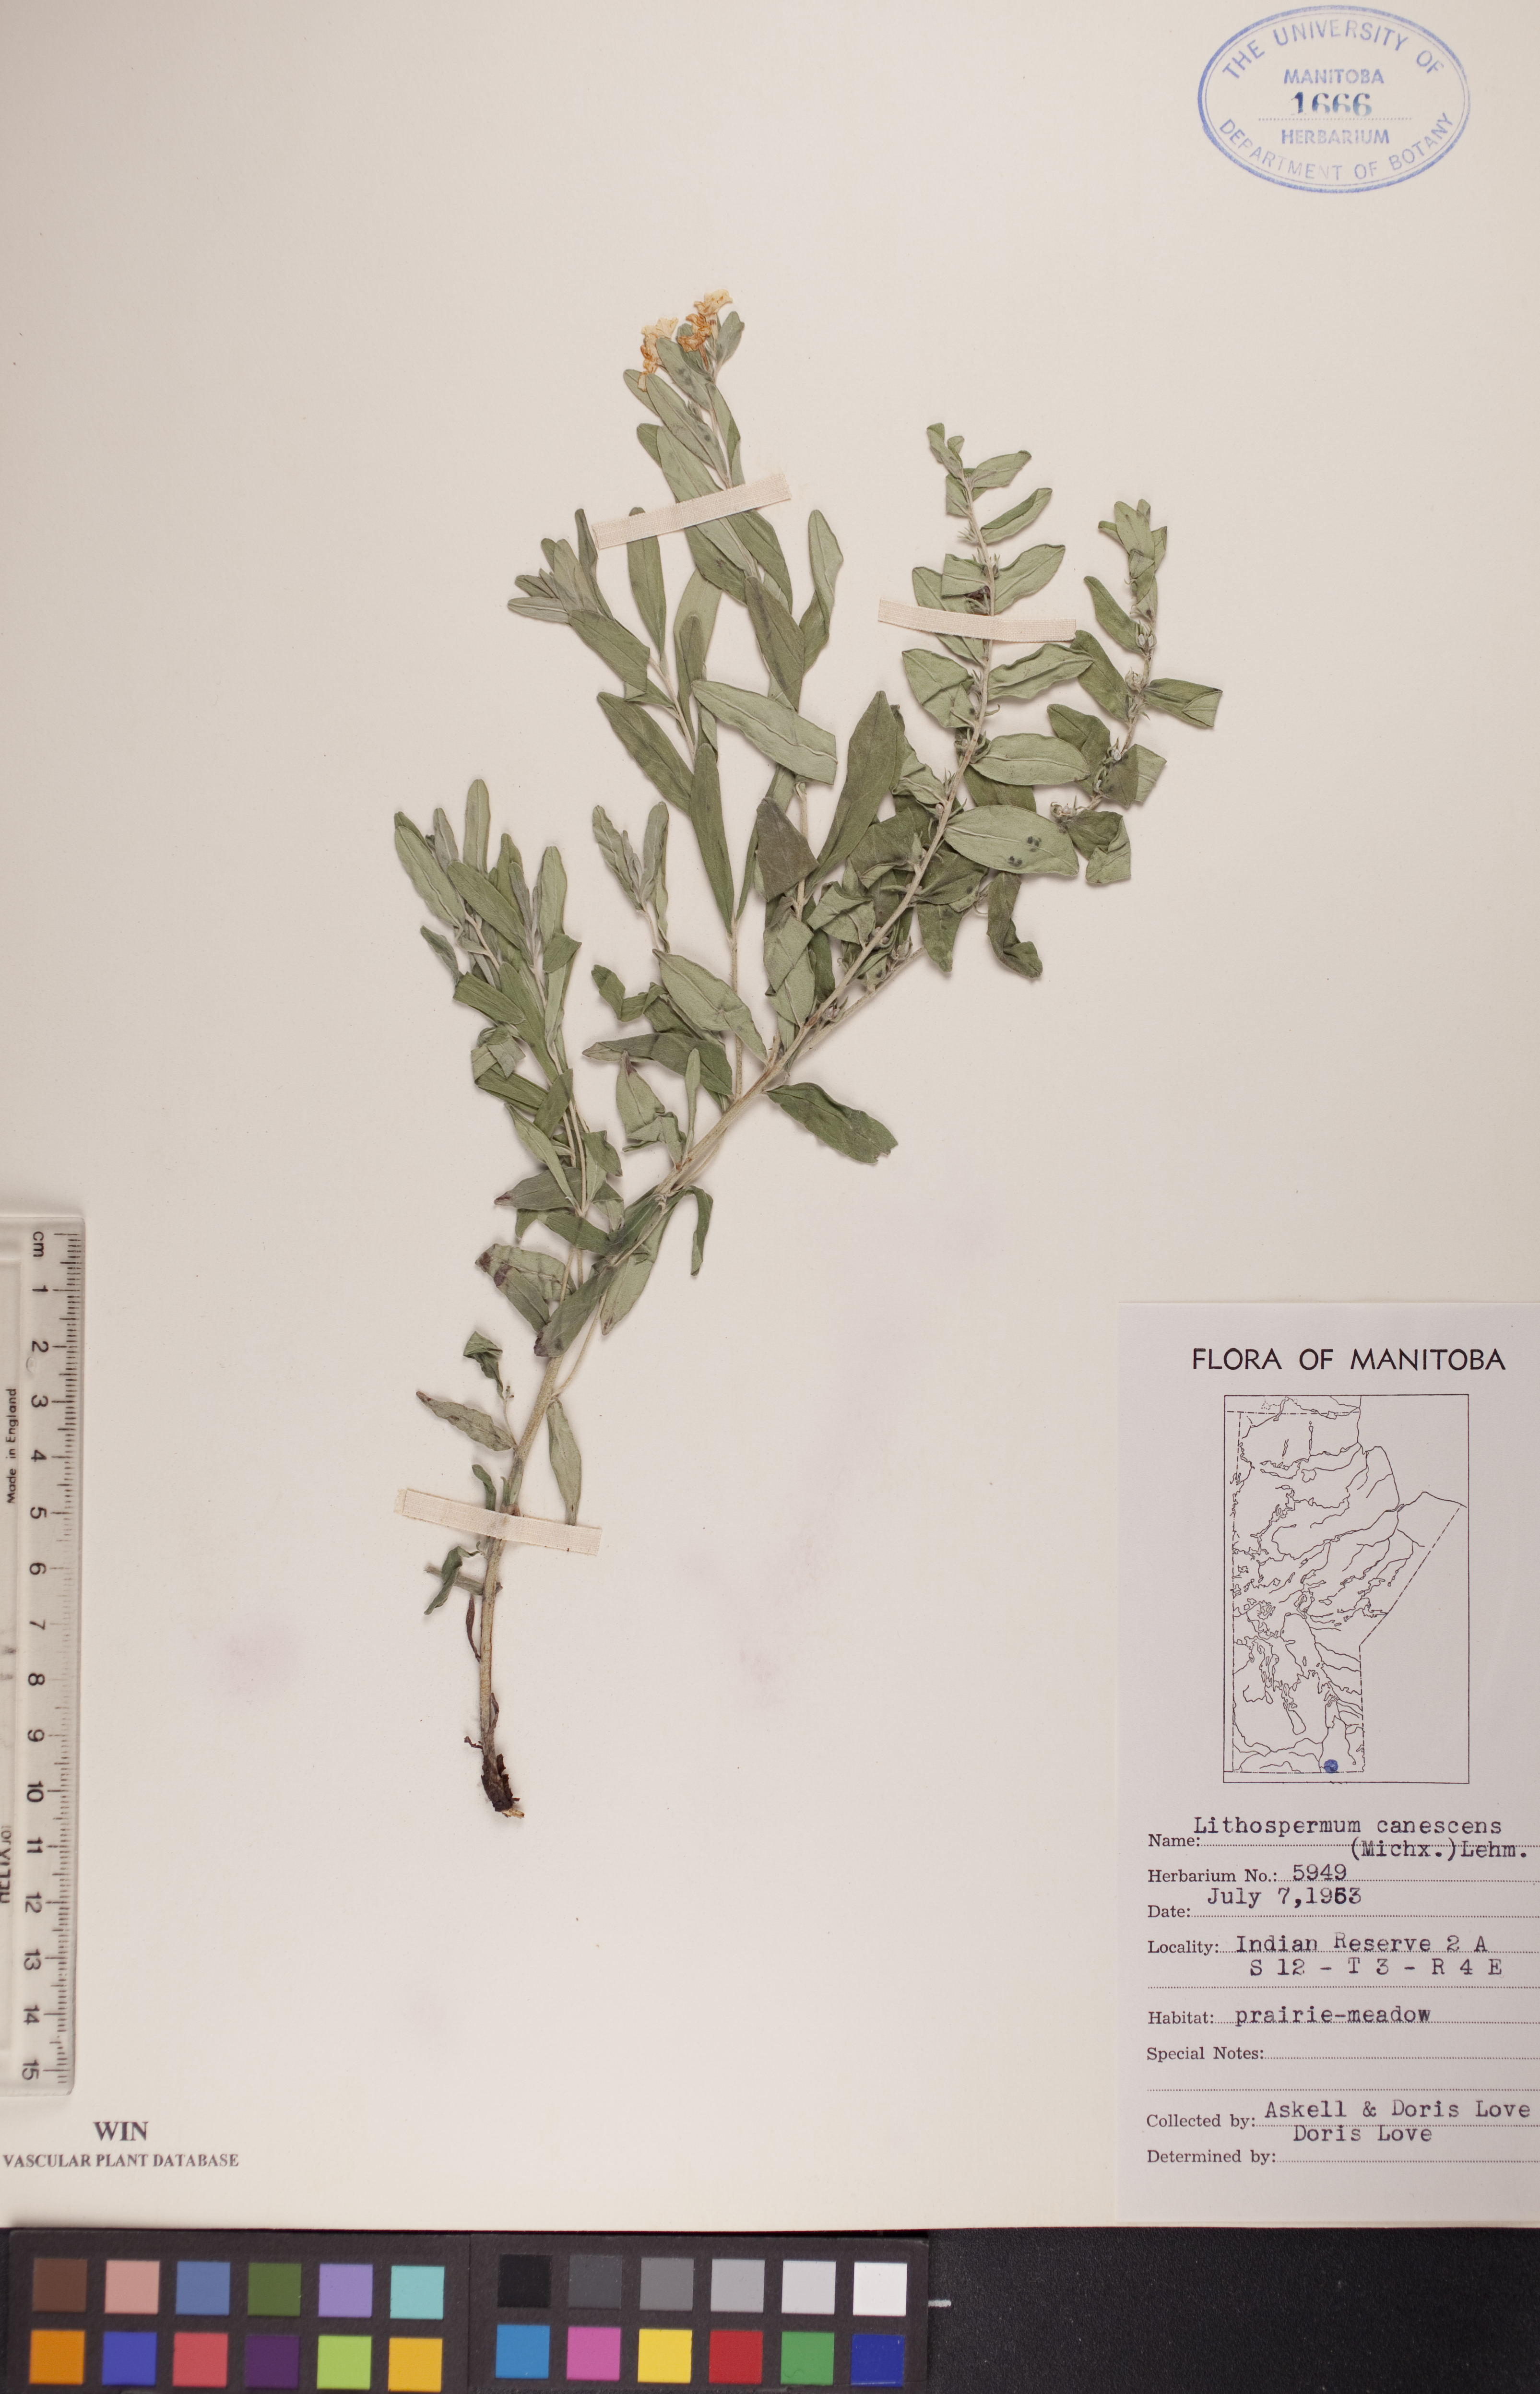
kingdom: Plantae
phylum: Tracheophyta
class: Magnoliopsida
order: Boraginales
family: Boraginaceae
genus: Lithospermum
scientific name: Lithospermum canescens
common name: Hoary puccoon
